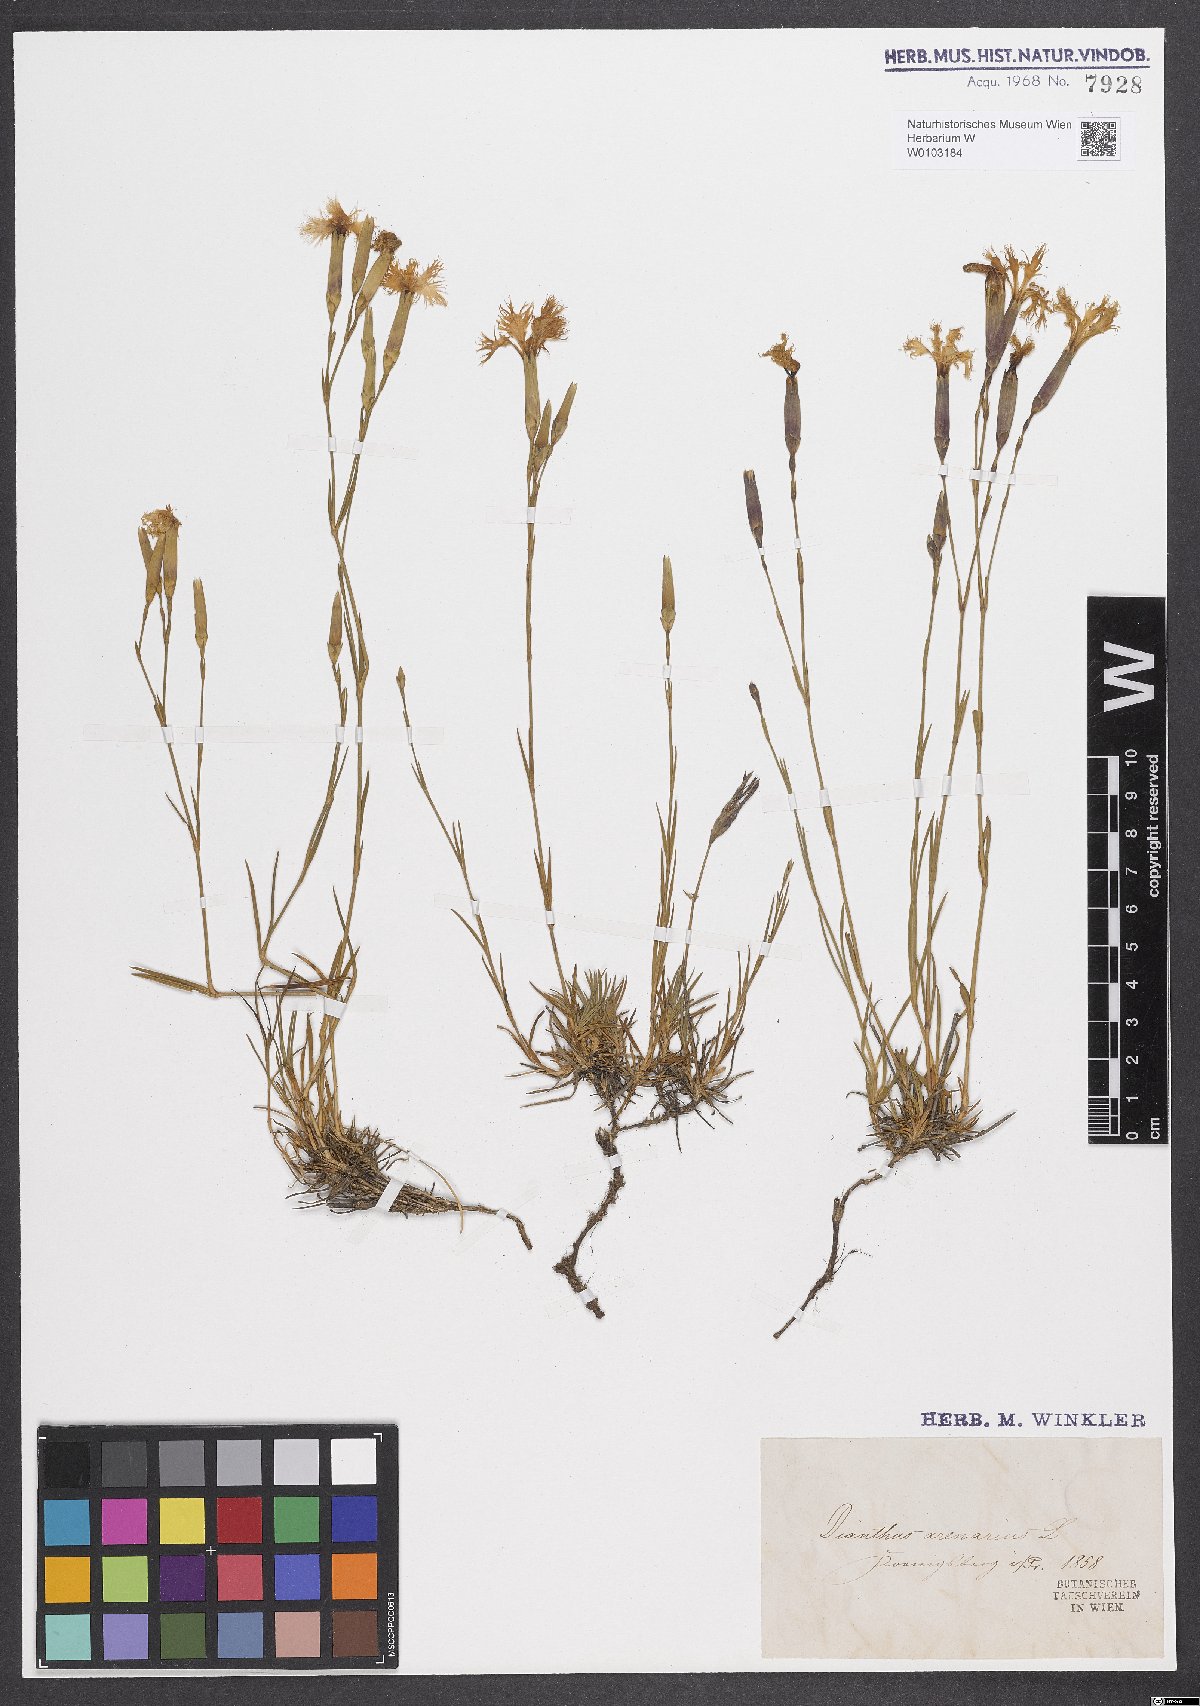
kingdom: Plantae
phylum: Tracheophyta
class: Magnoliopsida
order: Caryophyllales
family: Caryophyllaceae
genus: Dianthus
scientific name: Dianthus arenarius
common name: Stone pink
